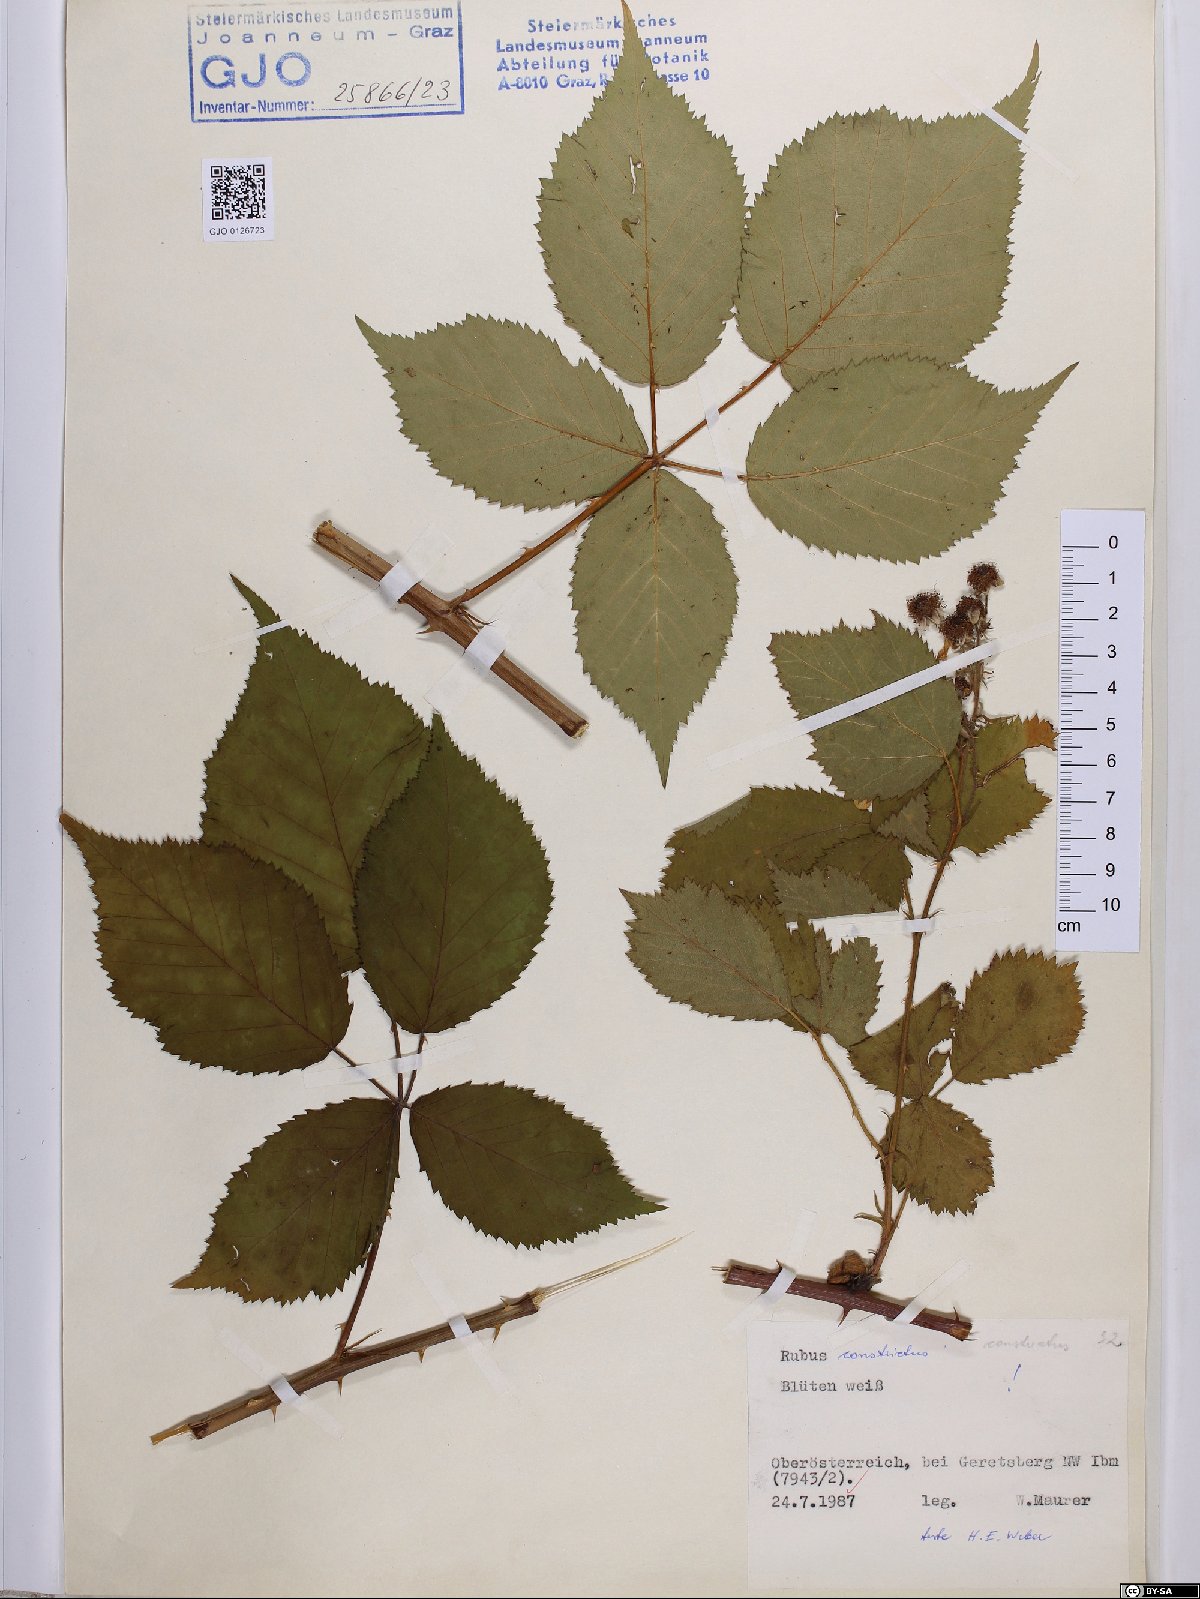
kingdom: Plantae
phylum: Tracheophyta
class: Magnoliopsida
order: Rosales
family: Rosaceae
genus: Rubus
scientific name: Rubus constrictus
